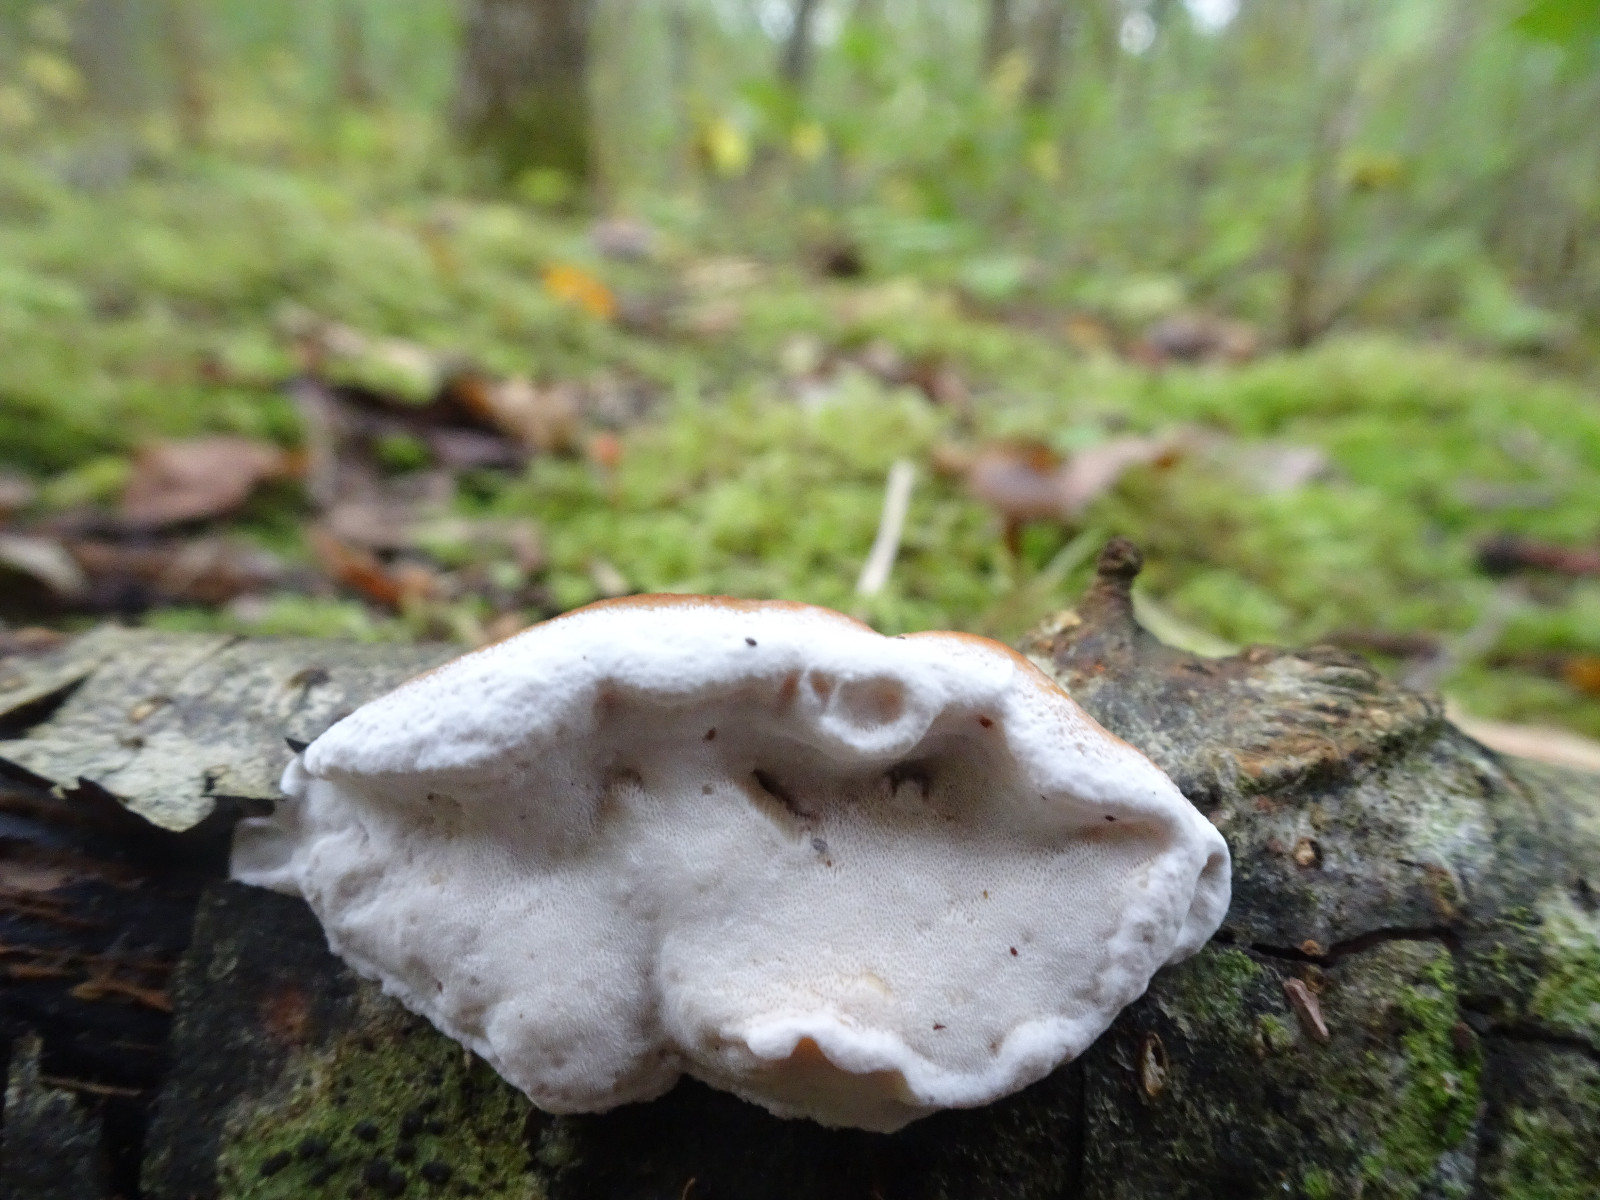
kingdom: Fungi
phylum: Basidiomycota
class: Agaricomycetes
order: Polyporales
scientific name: Polyporales
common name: poresvampordenen
